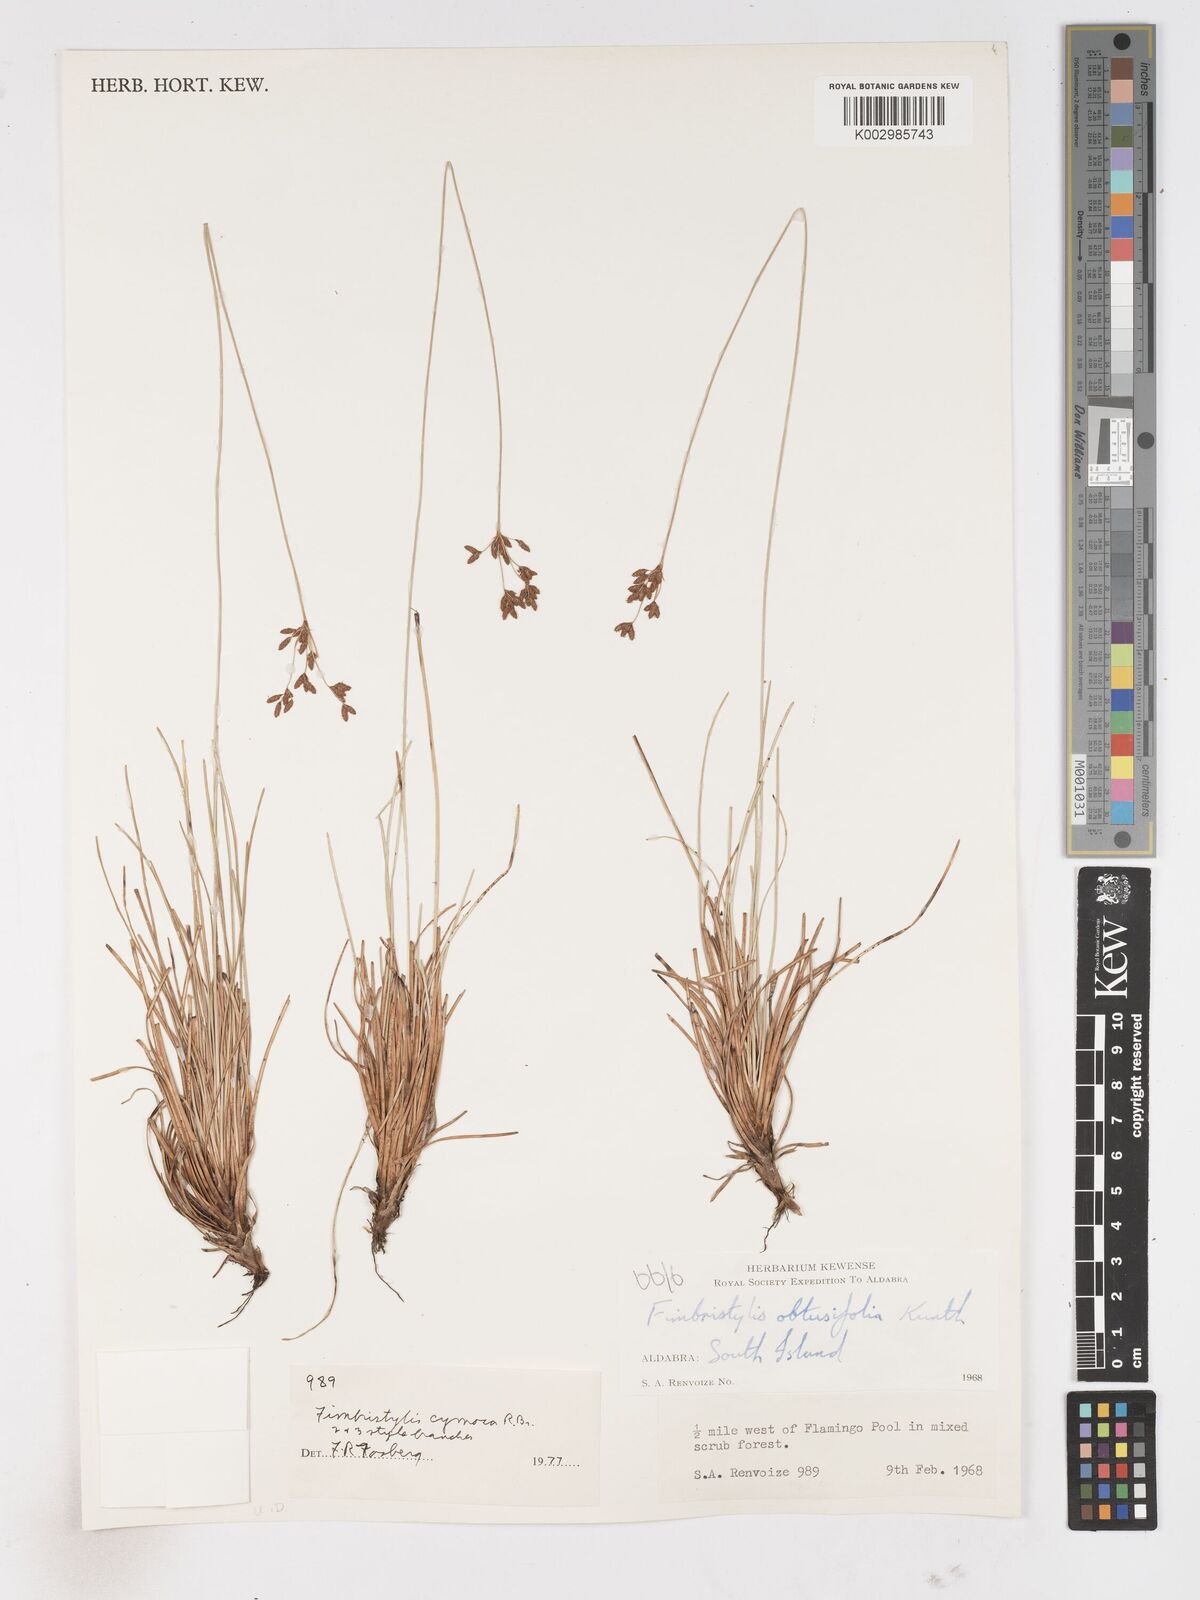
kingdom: Plantae
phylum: Tracheophyta
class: Liliopsida
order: Poales
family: Cyperaceae
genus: Fimbristylis
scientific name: Fimbristylis cymosa
